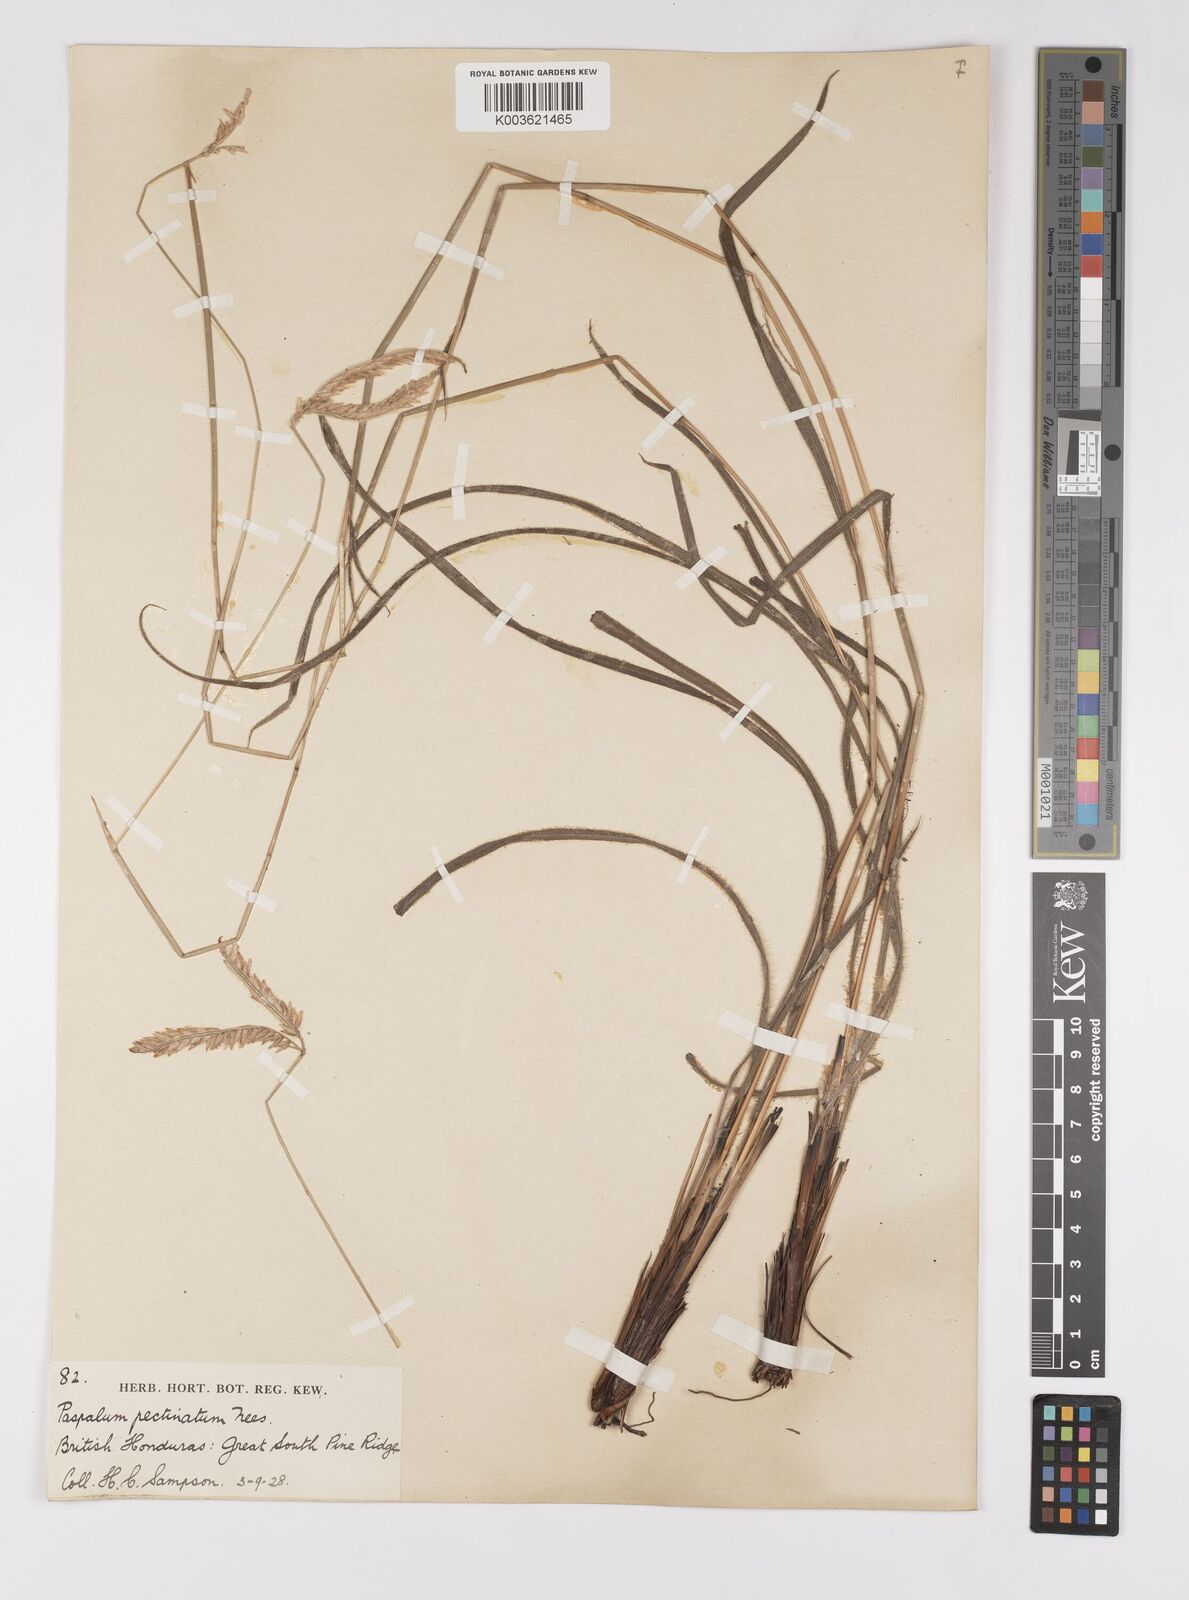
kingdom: Plantae
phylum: Tracheophyta
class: Liliopsida
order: Poales
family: Poaceae
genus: Paspalum
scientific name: Paspalum pectinatum
